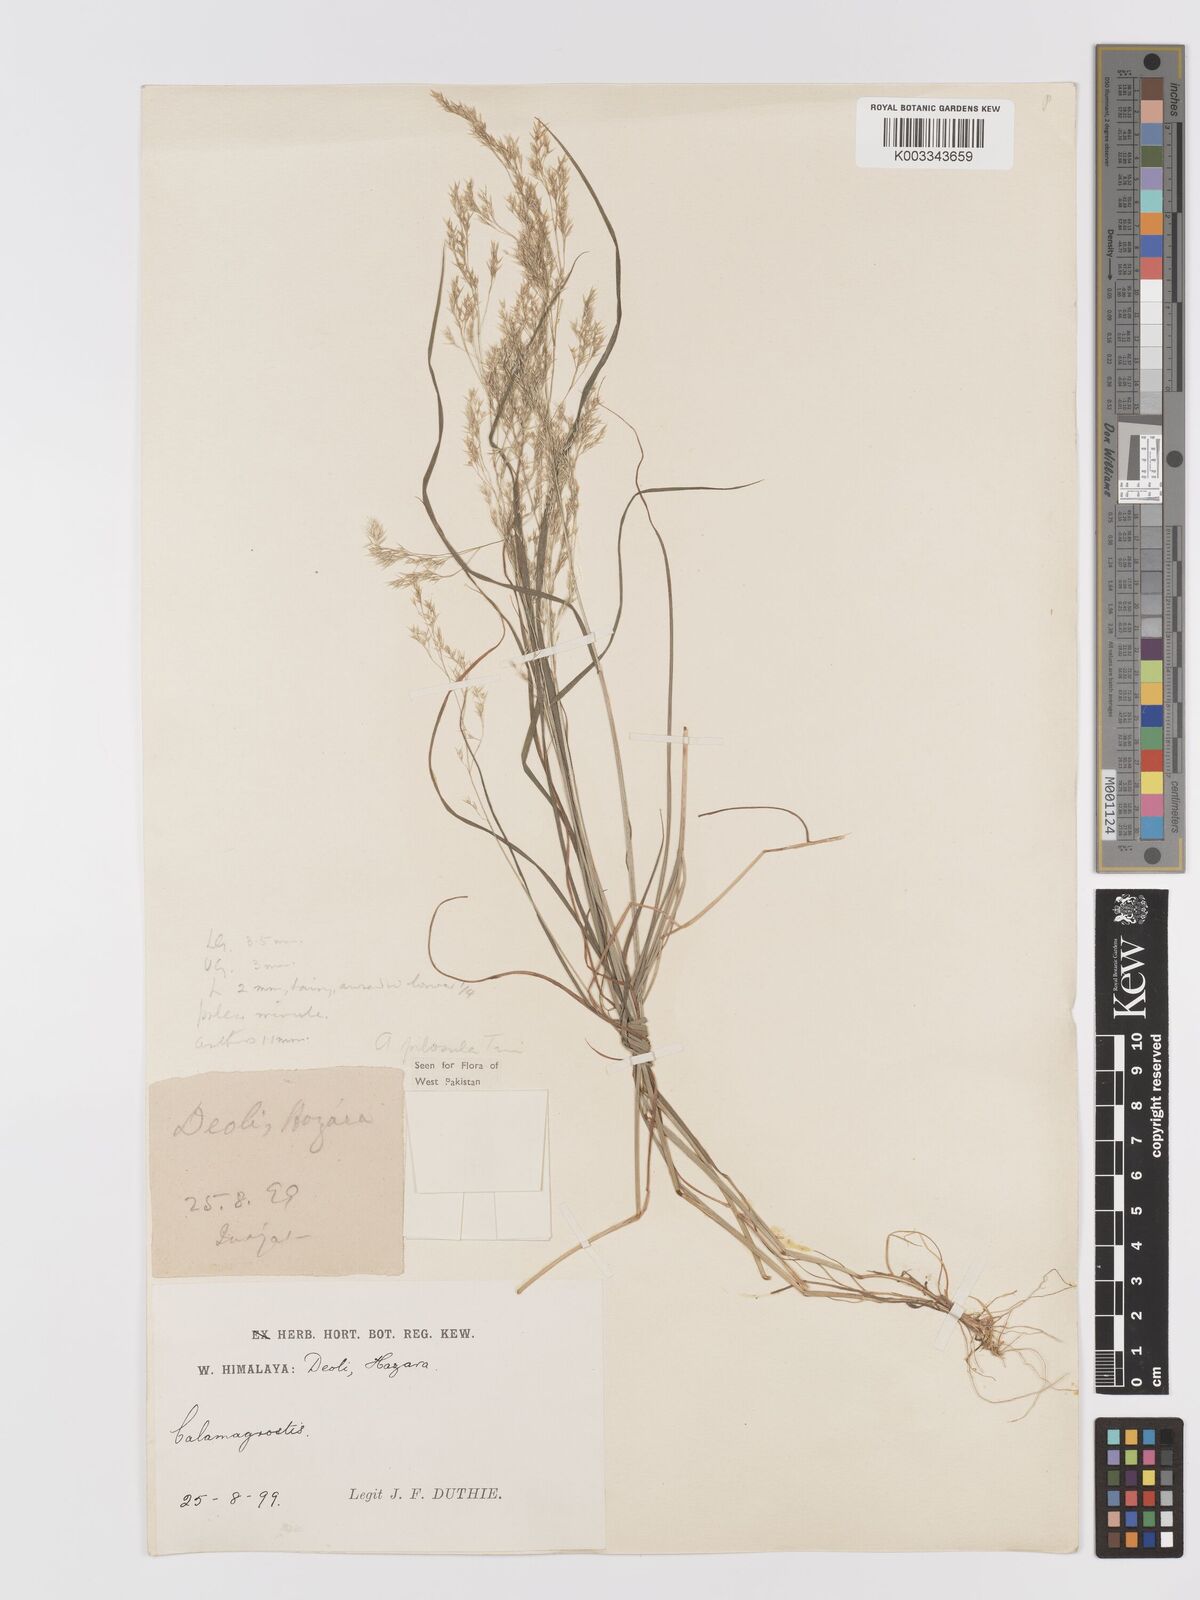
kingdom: Plantae
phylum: Tracheophyta
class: Liliopsida
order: Poales
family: Poaceae
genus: Agrostis
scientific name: Agrostis pilosula
